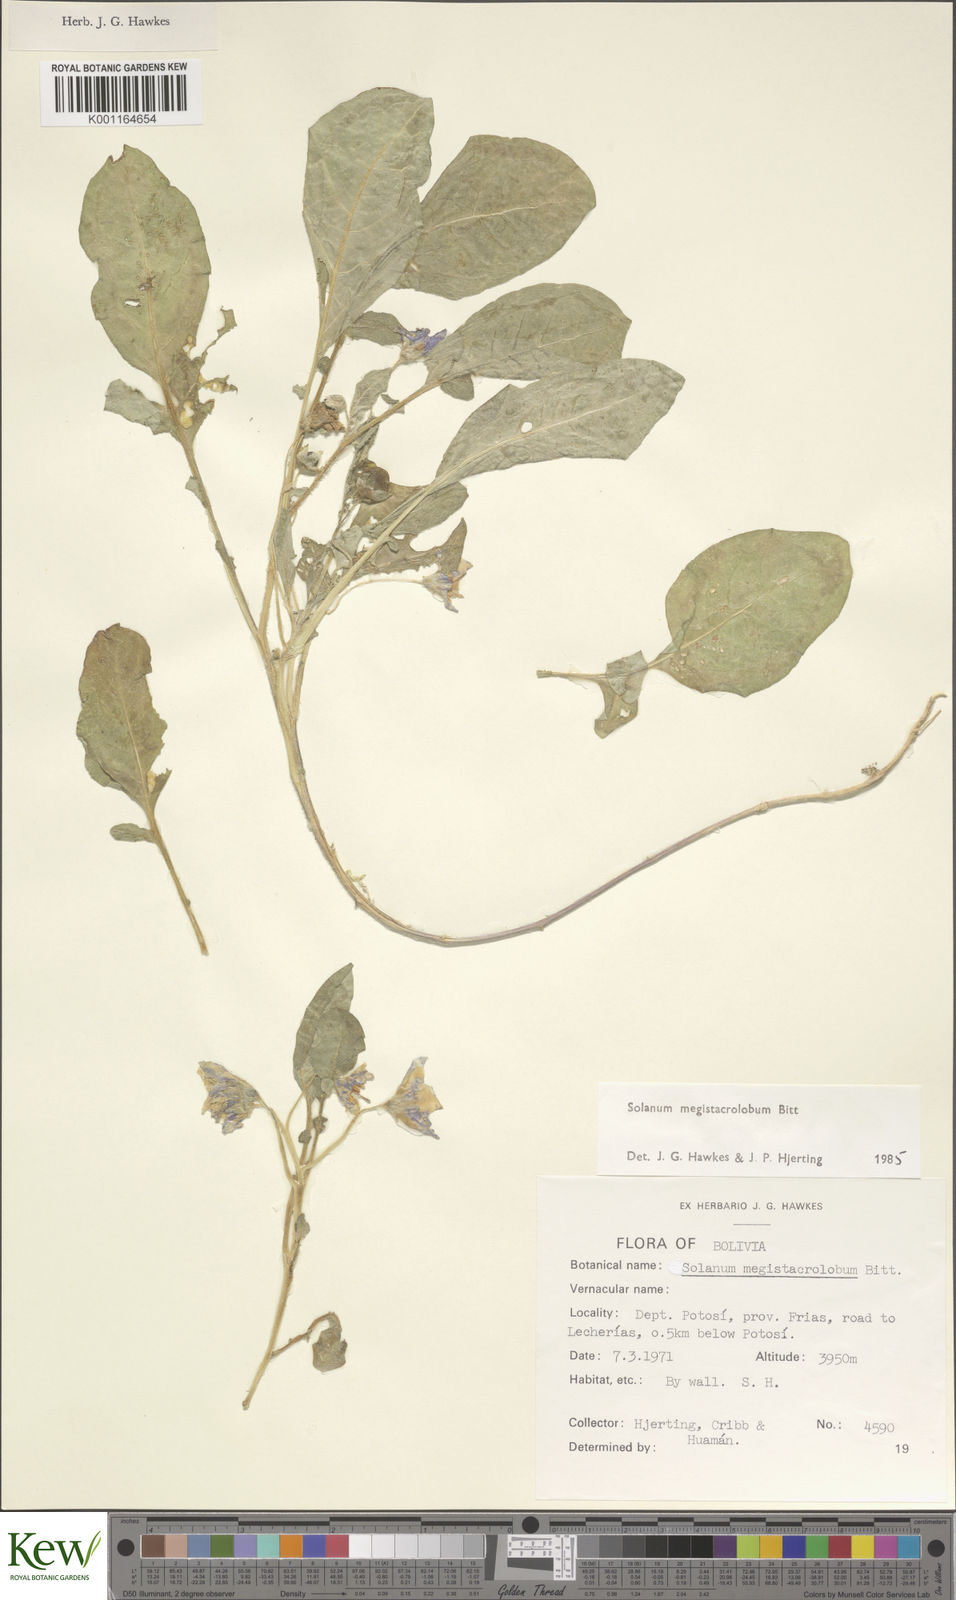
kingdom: Plantae
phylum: Tracheophyta
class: Magnoliopsida
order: Solanales
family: Solanaceae
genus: Solanum
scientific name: Solanum boliviense
